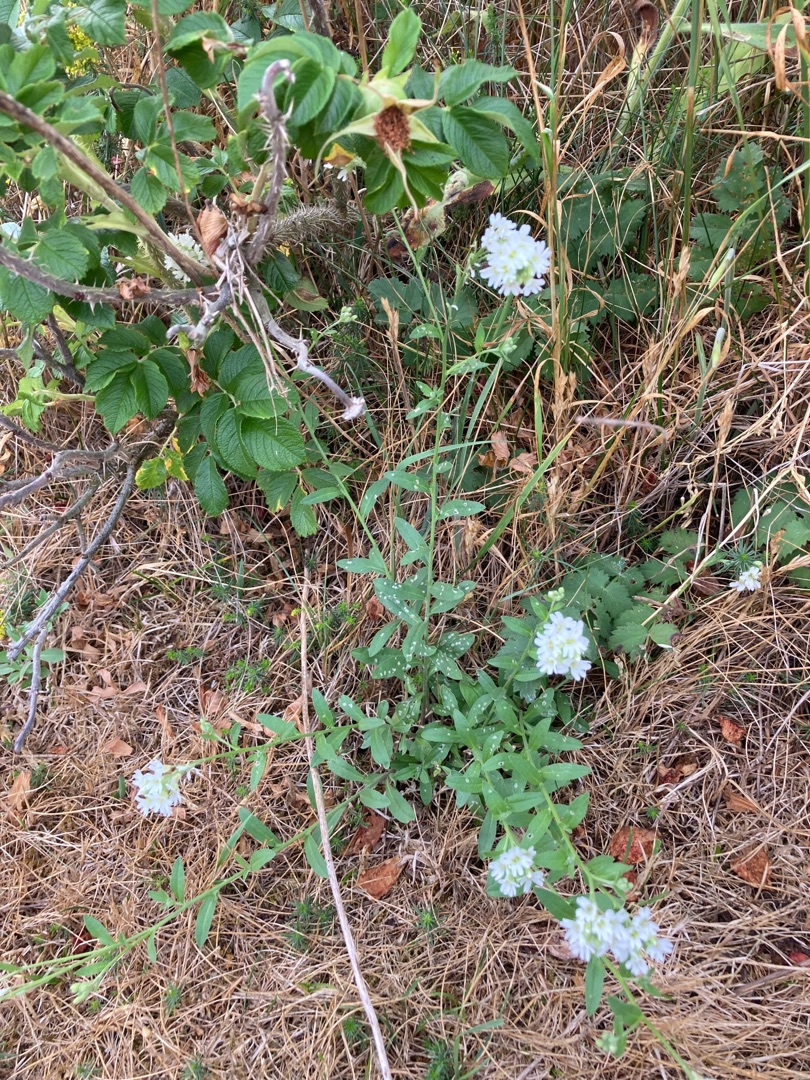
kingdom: Plantae
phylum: Tracheophyta
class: Magnoliopsida
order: Brassicales
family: Brassicaceae
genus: Berteroa
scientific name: Berteroa incana
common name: Kløvplade
